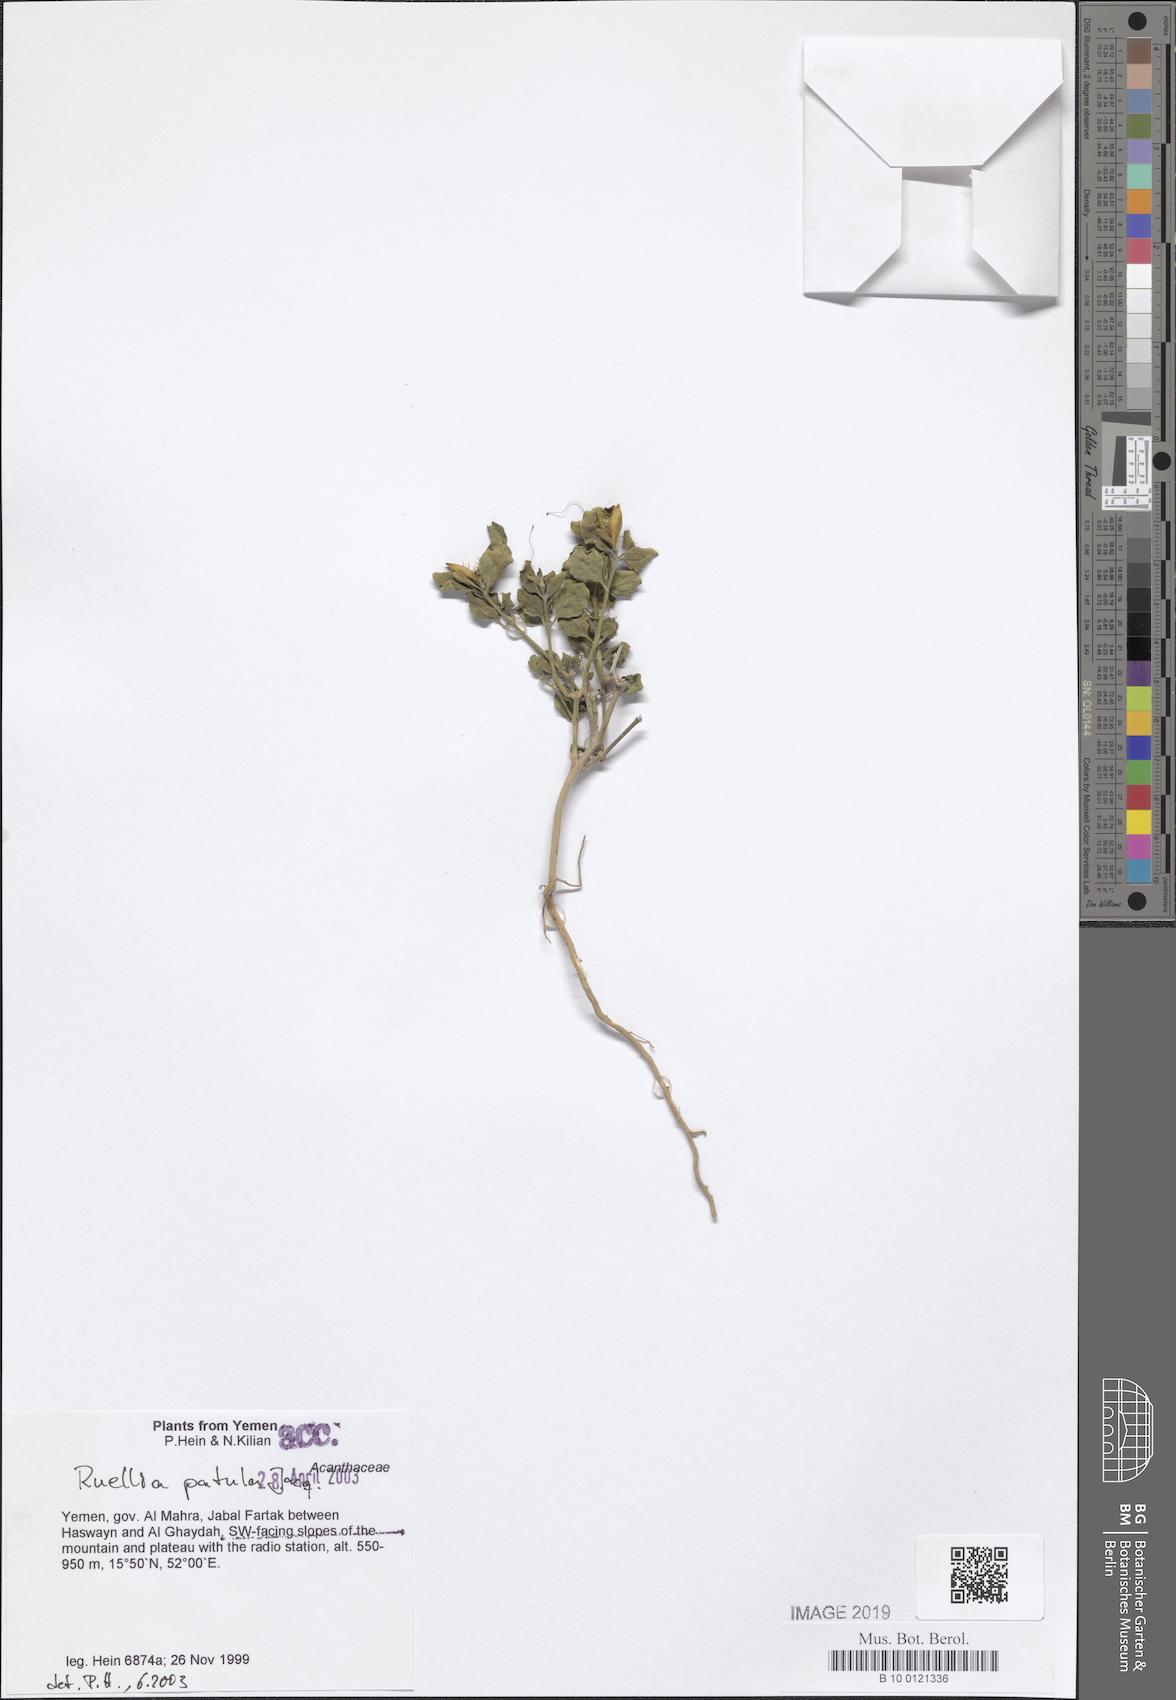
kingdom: Plantae
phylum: Tracheophyta
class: Magnoliopsida
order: Lamiales
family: Acanthaceae
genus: Ruellia
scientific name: Ruellia patula
